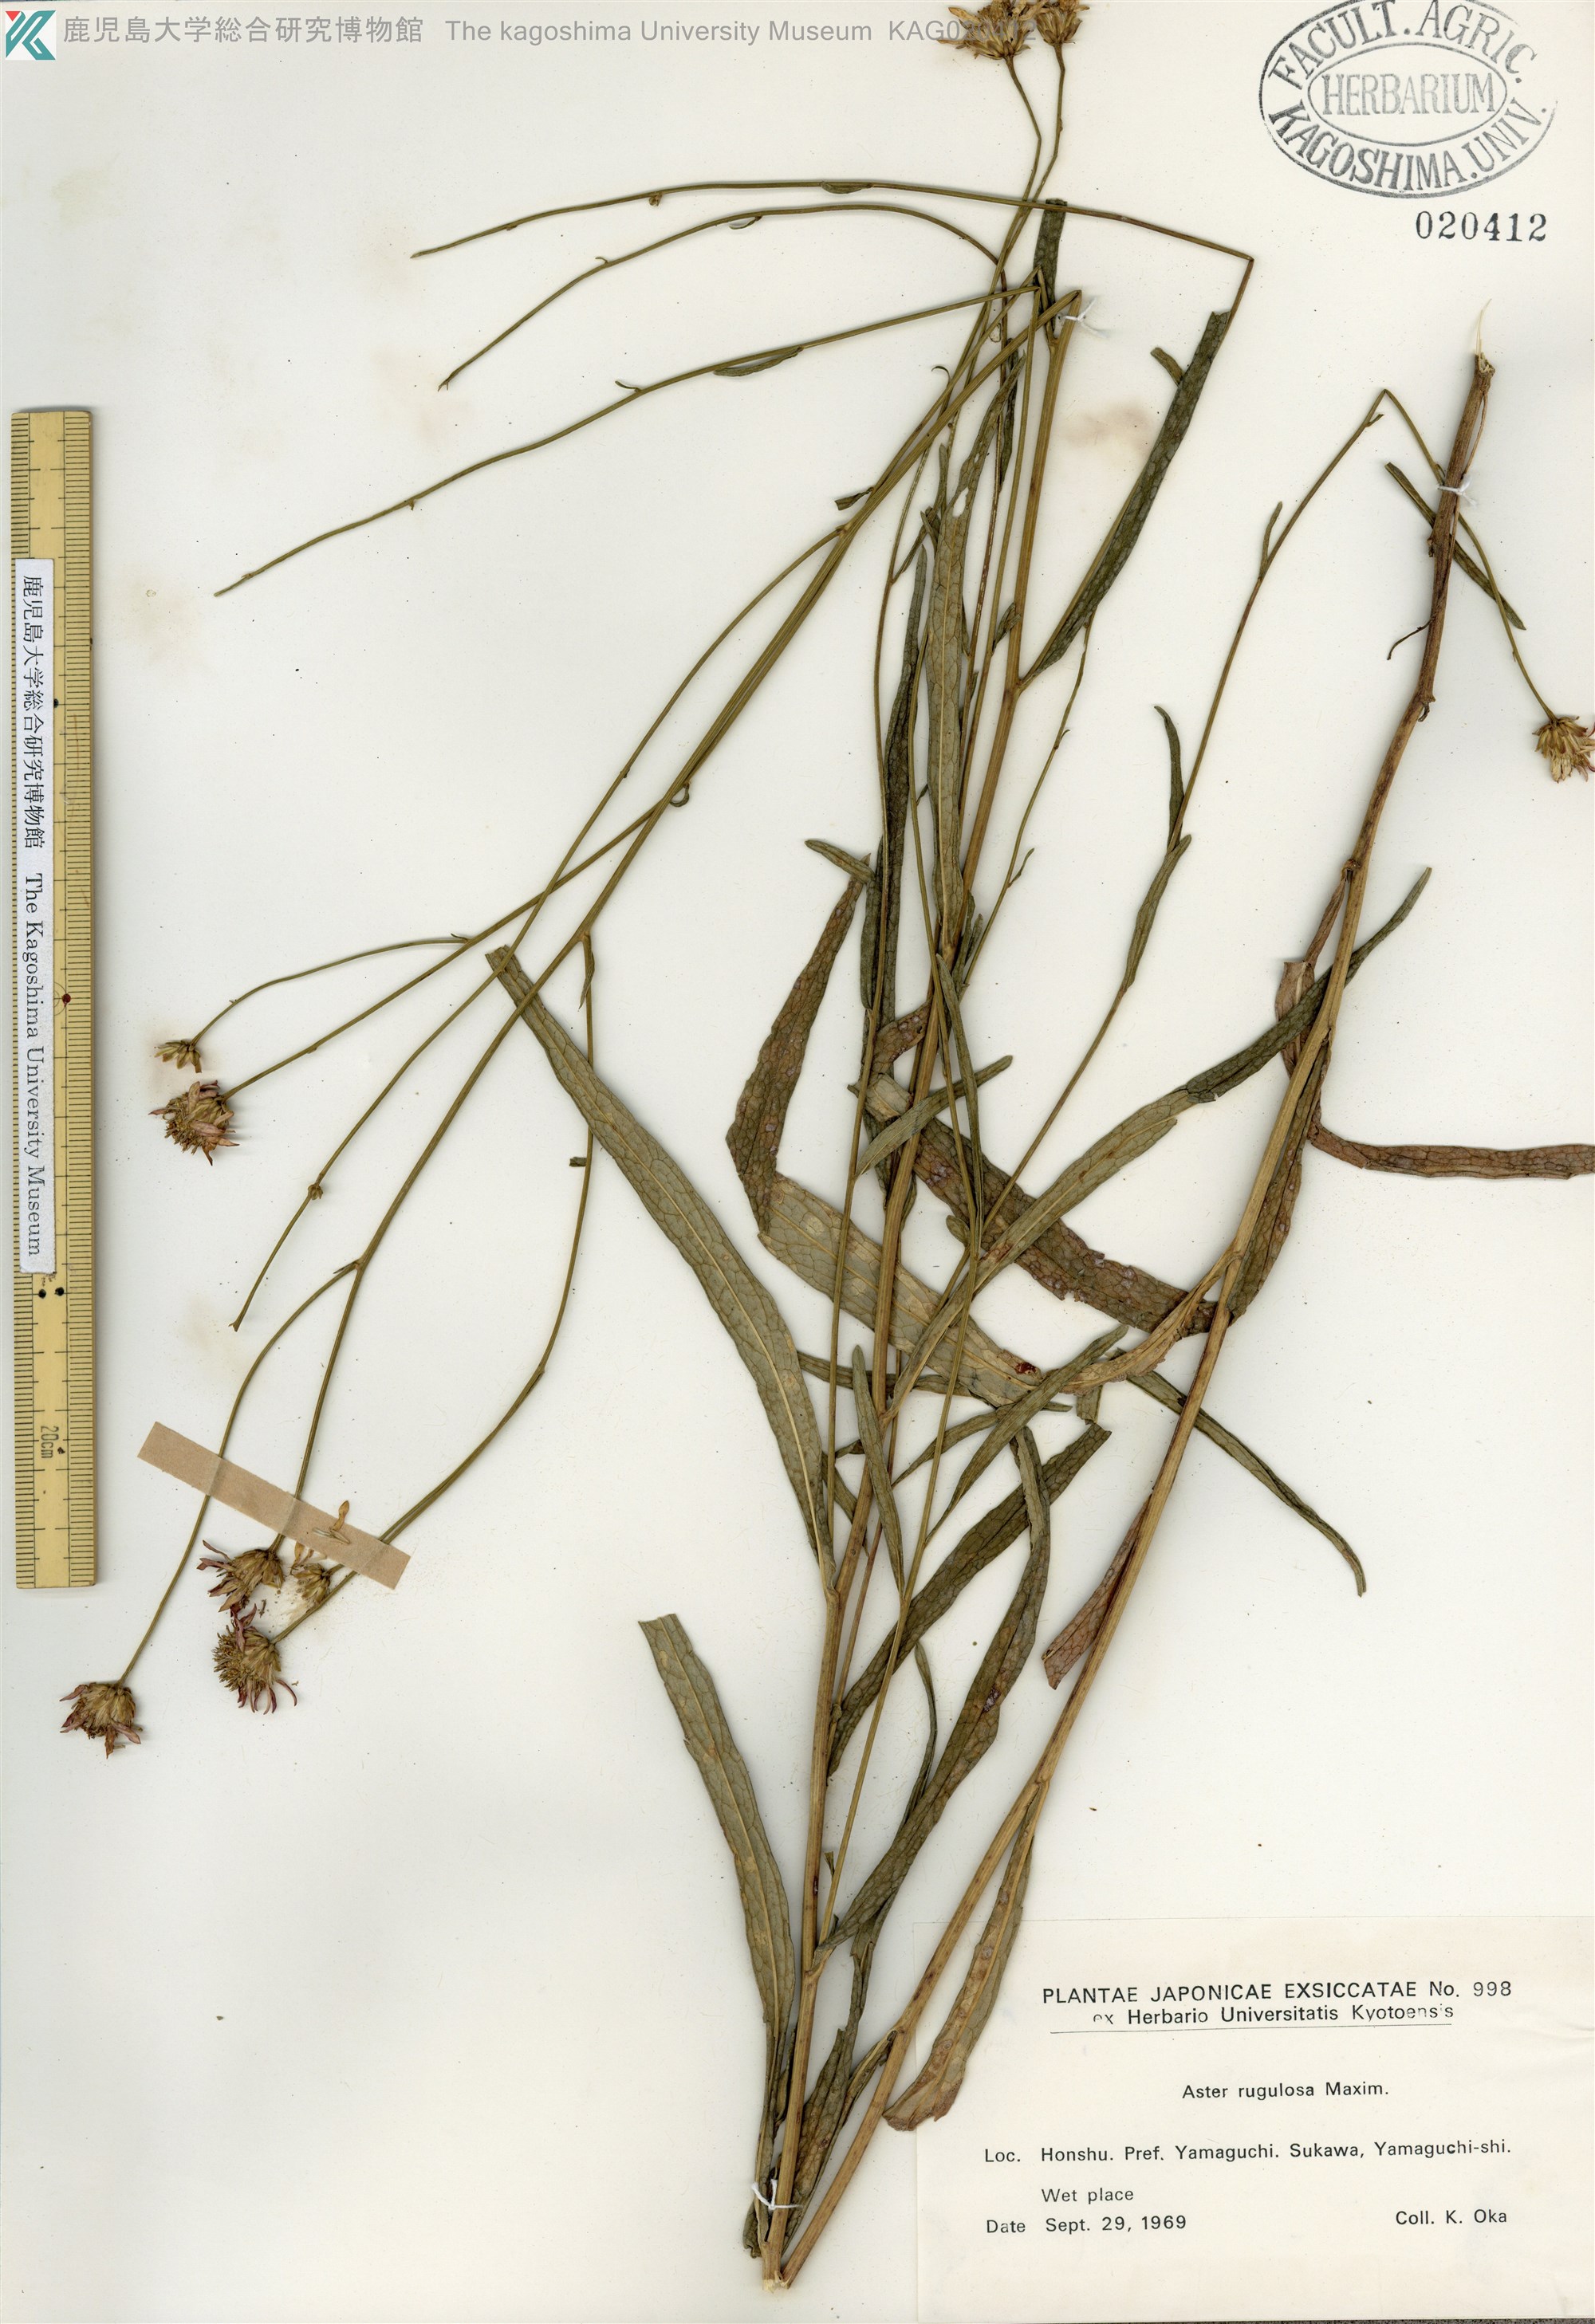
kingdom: Plantae
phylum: Tracheophyta
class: Magnoliopsida
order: Asterales
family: Asteraceae
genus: Cardiagyris
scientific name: Cardiagyris rugulosa
